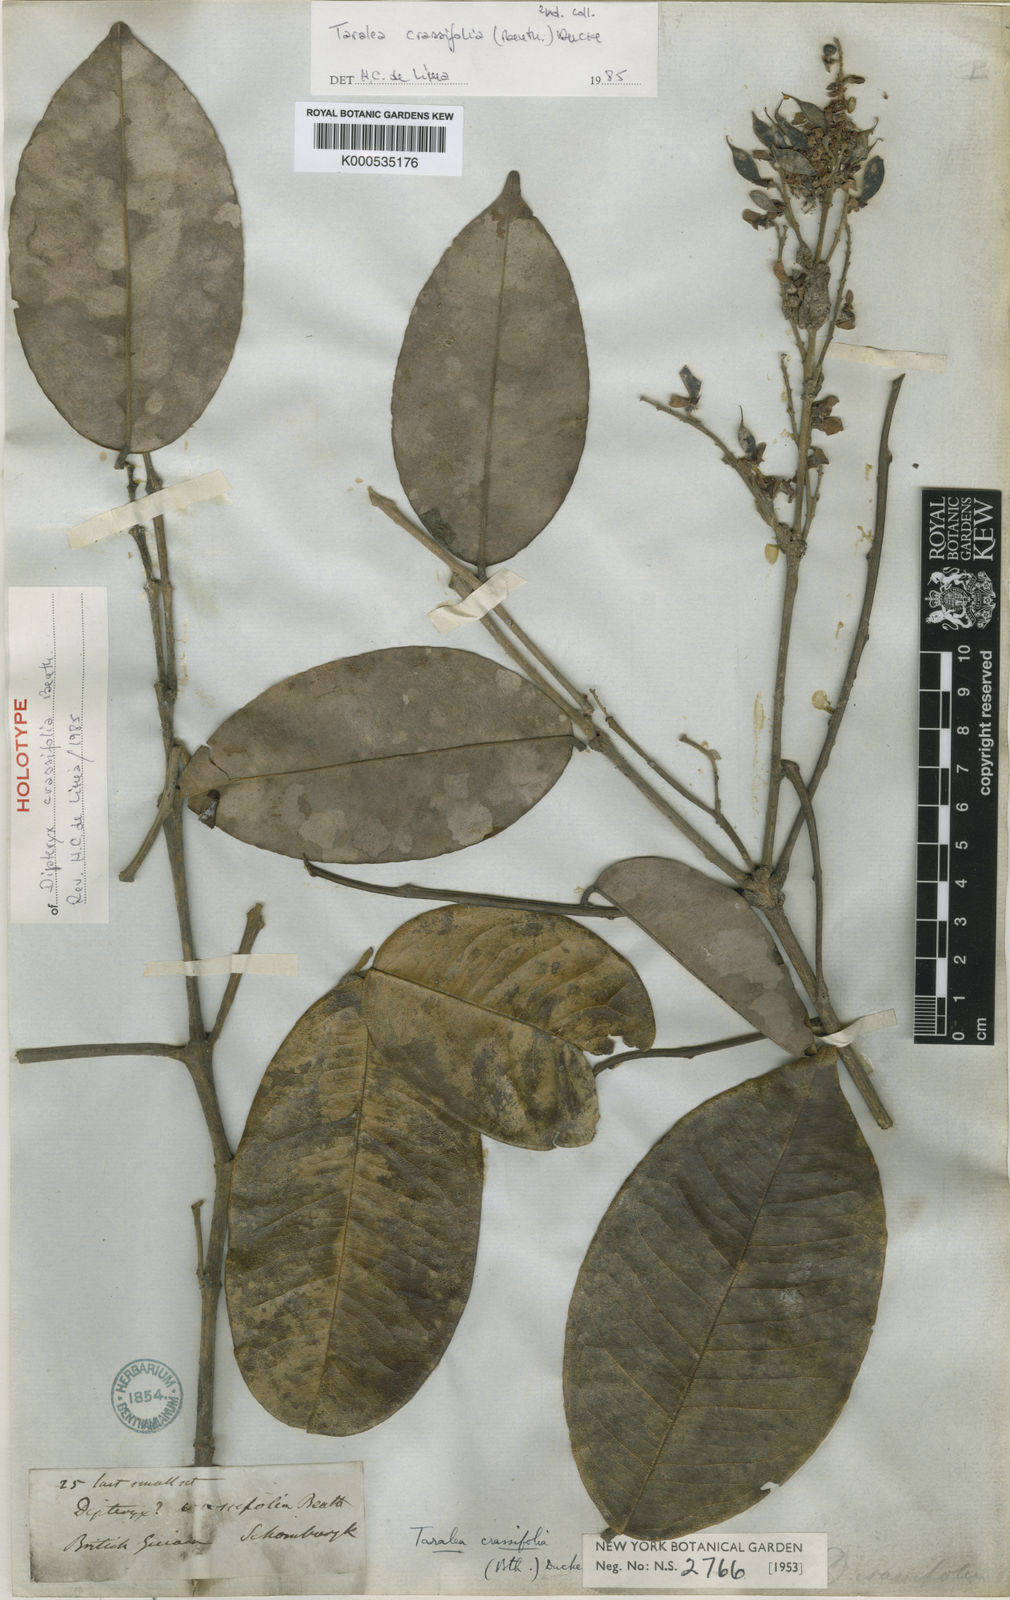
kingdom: Plantae
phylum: Tracheophyta
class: Magnoliopsida
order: Fabales
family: Fabaceae
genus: Taralea
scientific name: Taralea crassifolia
